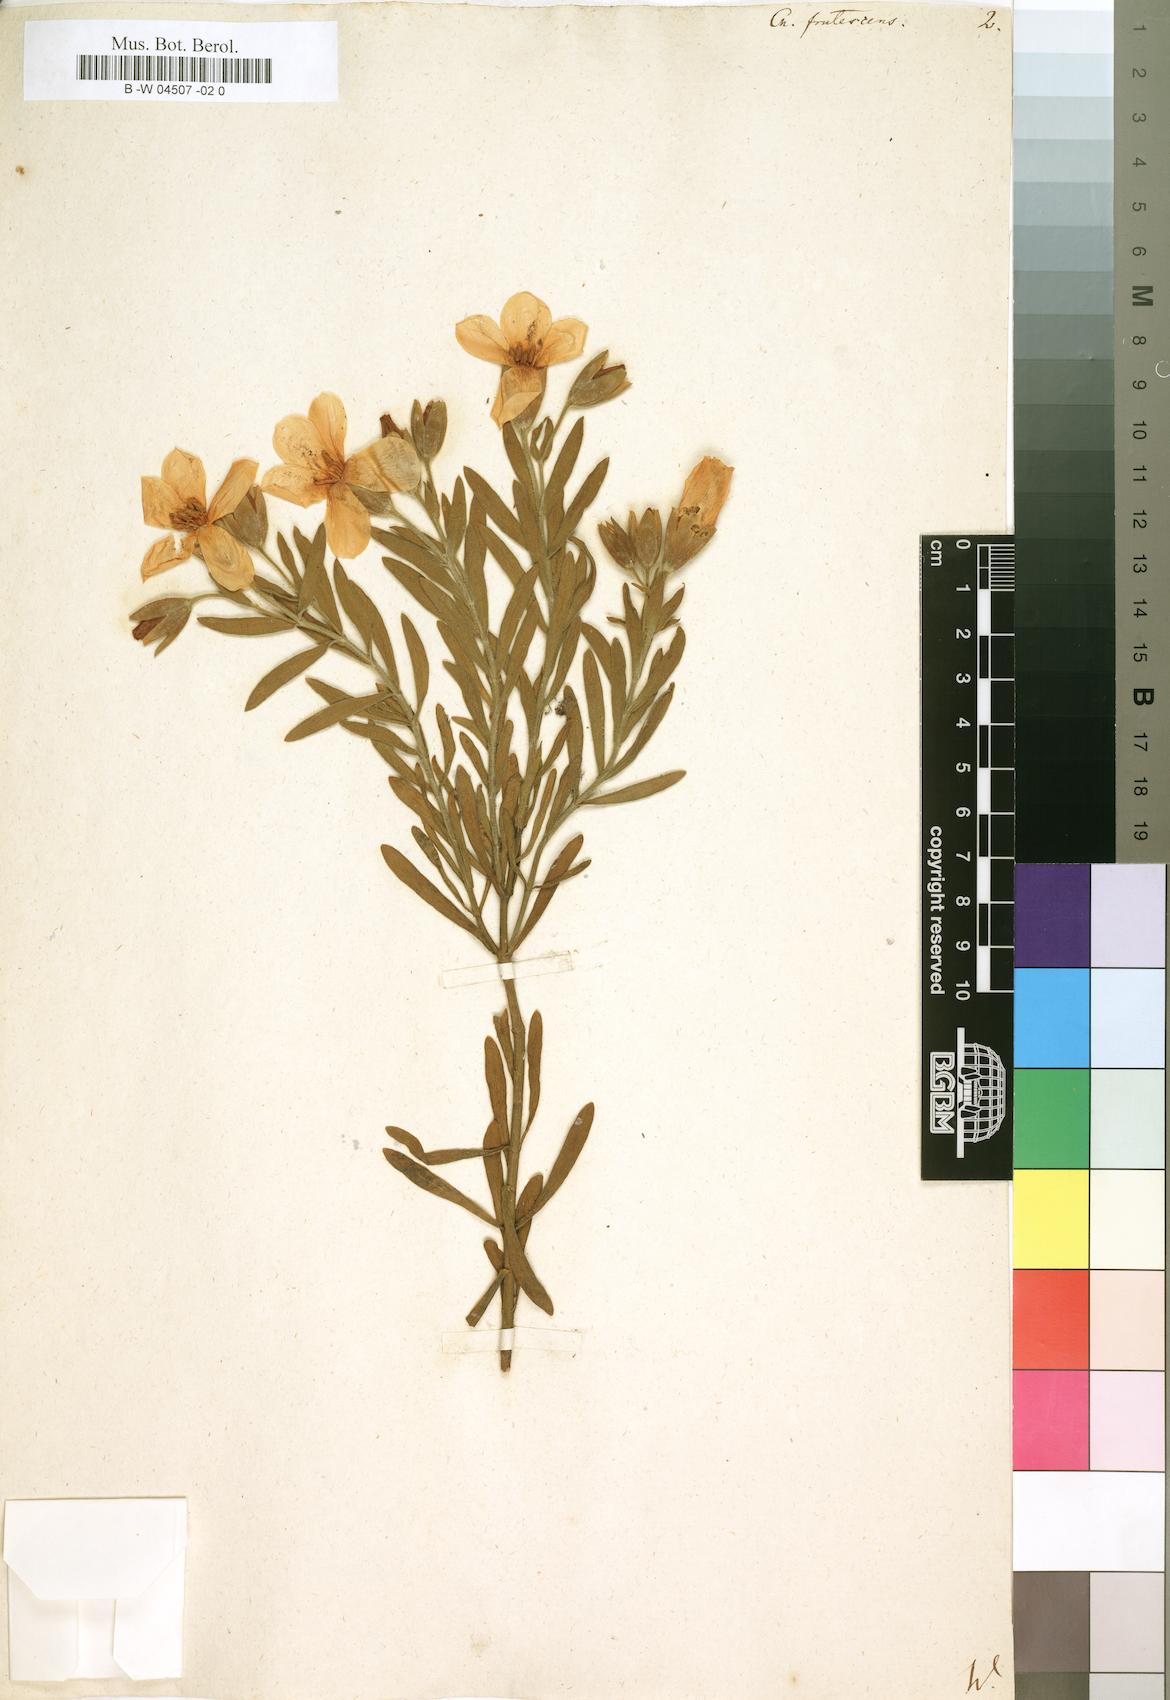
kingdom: Plantae
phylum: Tracheophyta
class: Magnoliopsida
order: Gentianales
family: Gentianaceae
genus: Orphium
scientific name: Orphium frutescens
